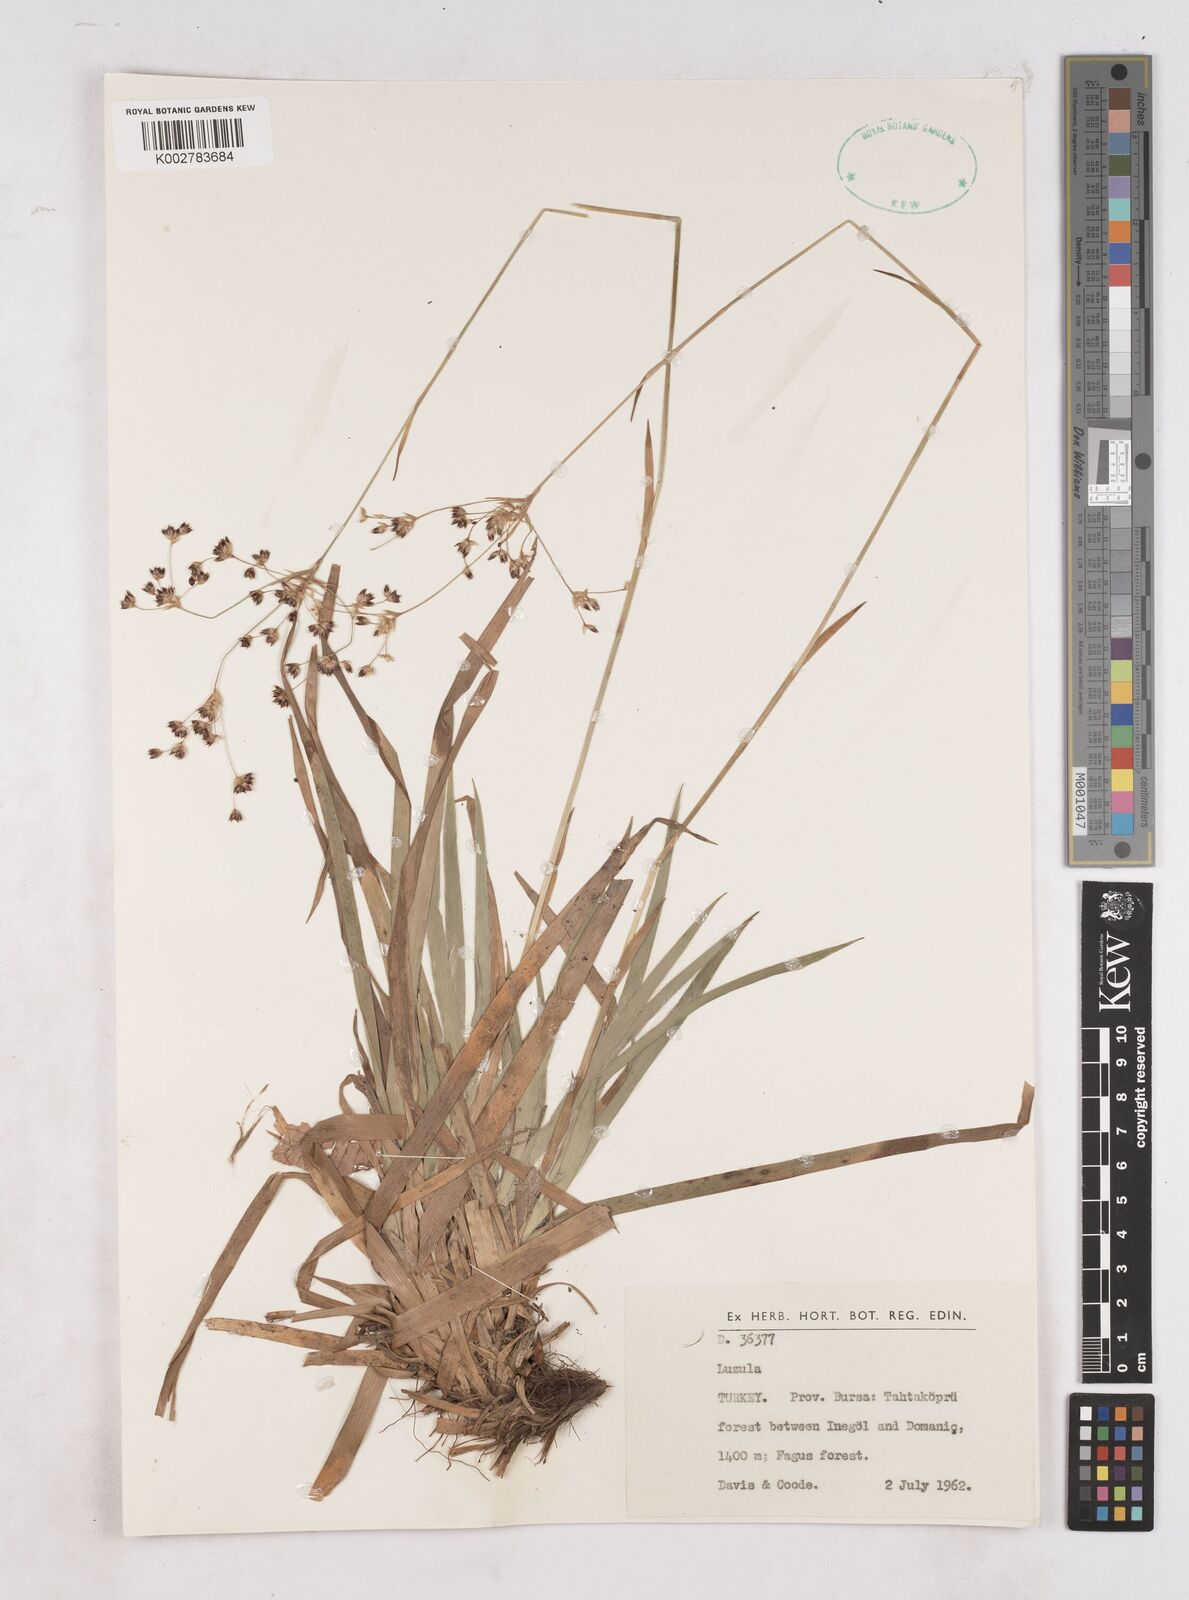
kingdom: Plantae
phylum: Tracheophyta
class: Liliopsida
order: Poales
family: Juncaceae
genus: Luzula
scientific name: Luzula
